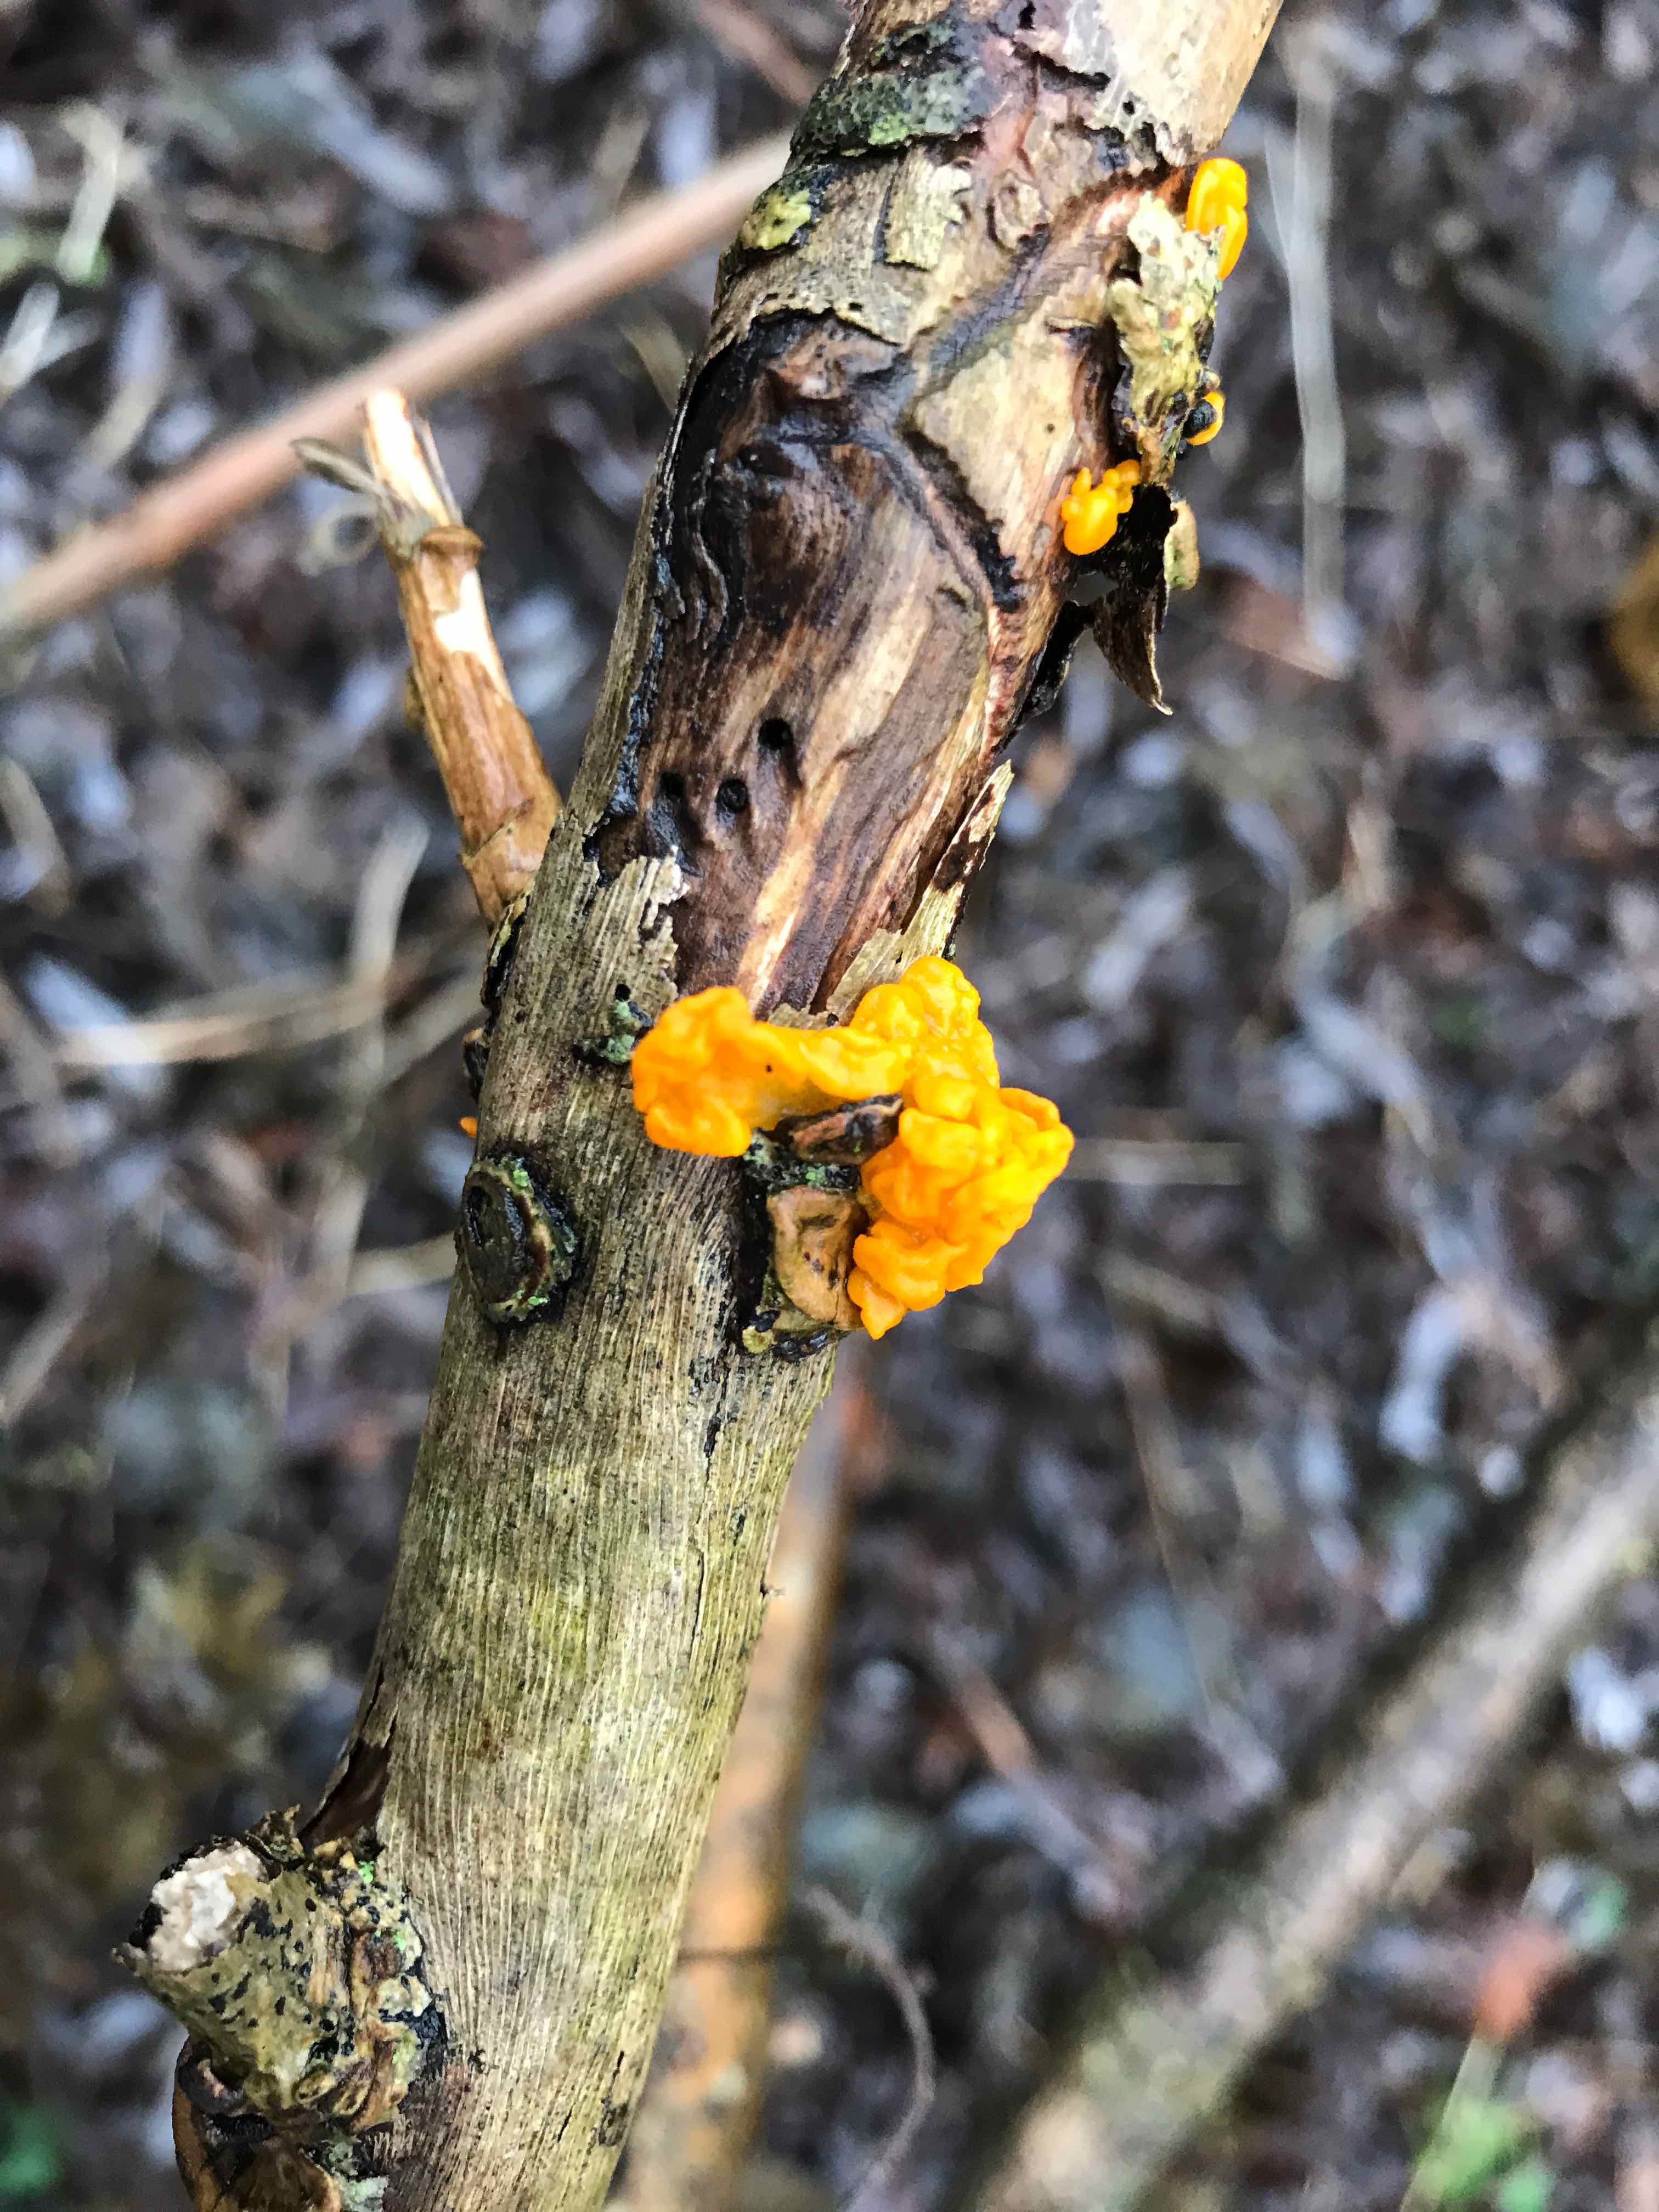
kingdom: Fungi
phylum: Basidiomycota
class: Tremellomycetes
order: Tremellales
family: Tremellaceae
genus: Tremella
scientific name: Tremella mesenterica
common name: gul bævresvamp
